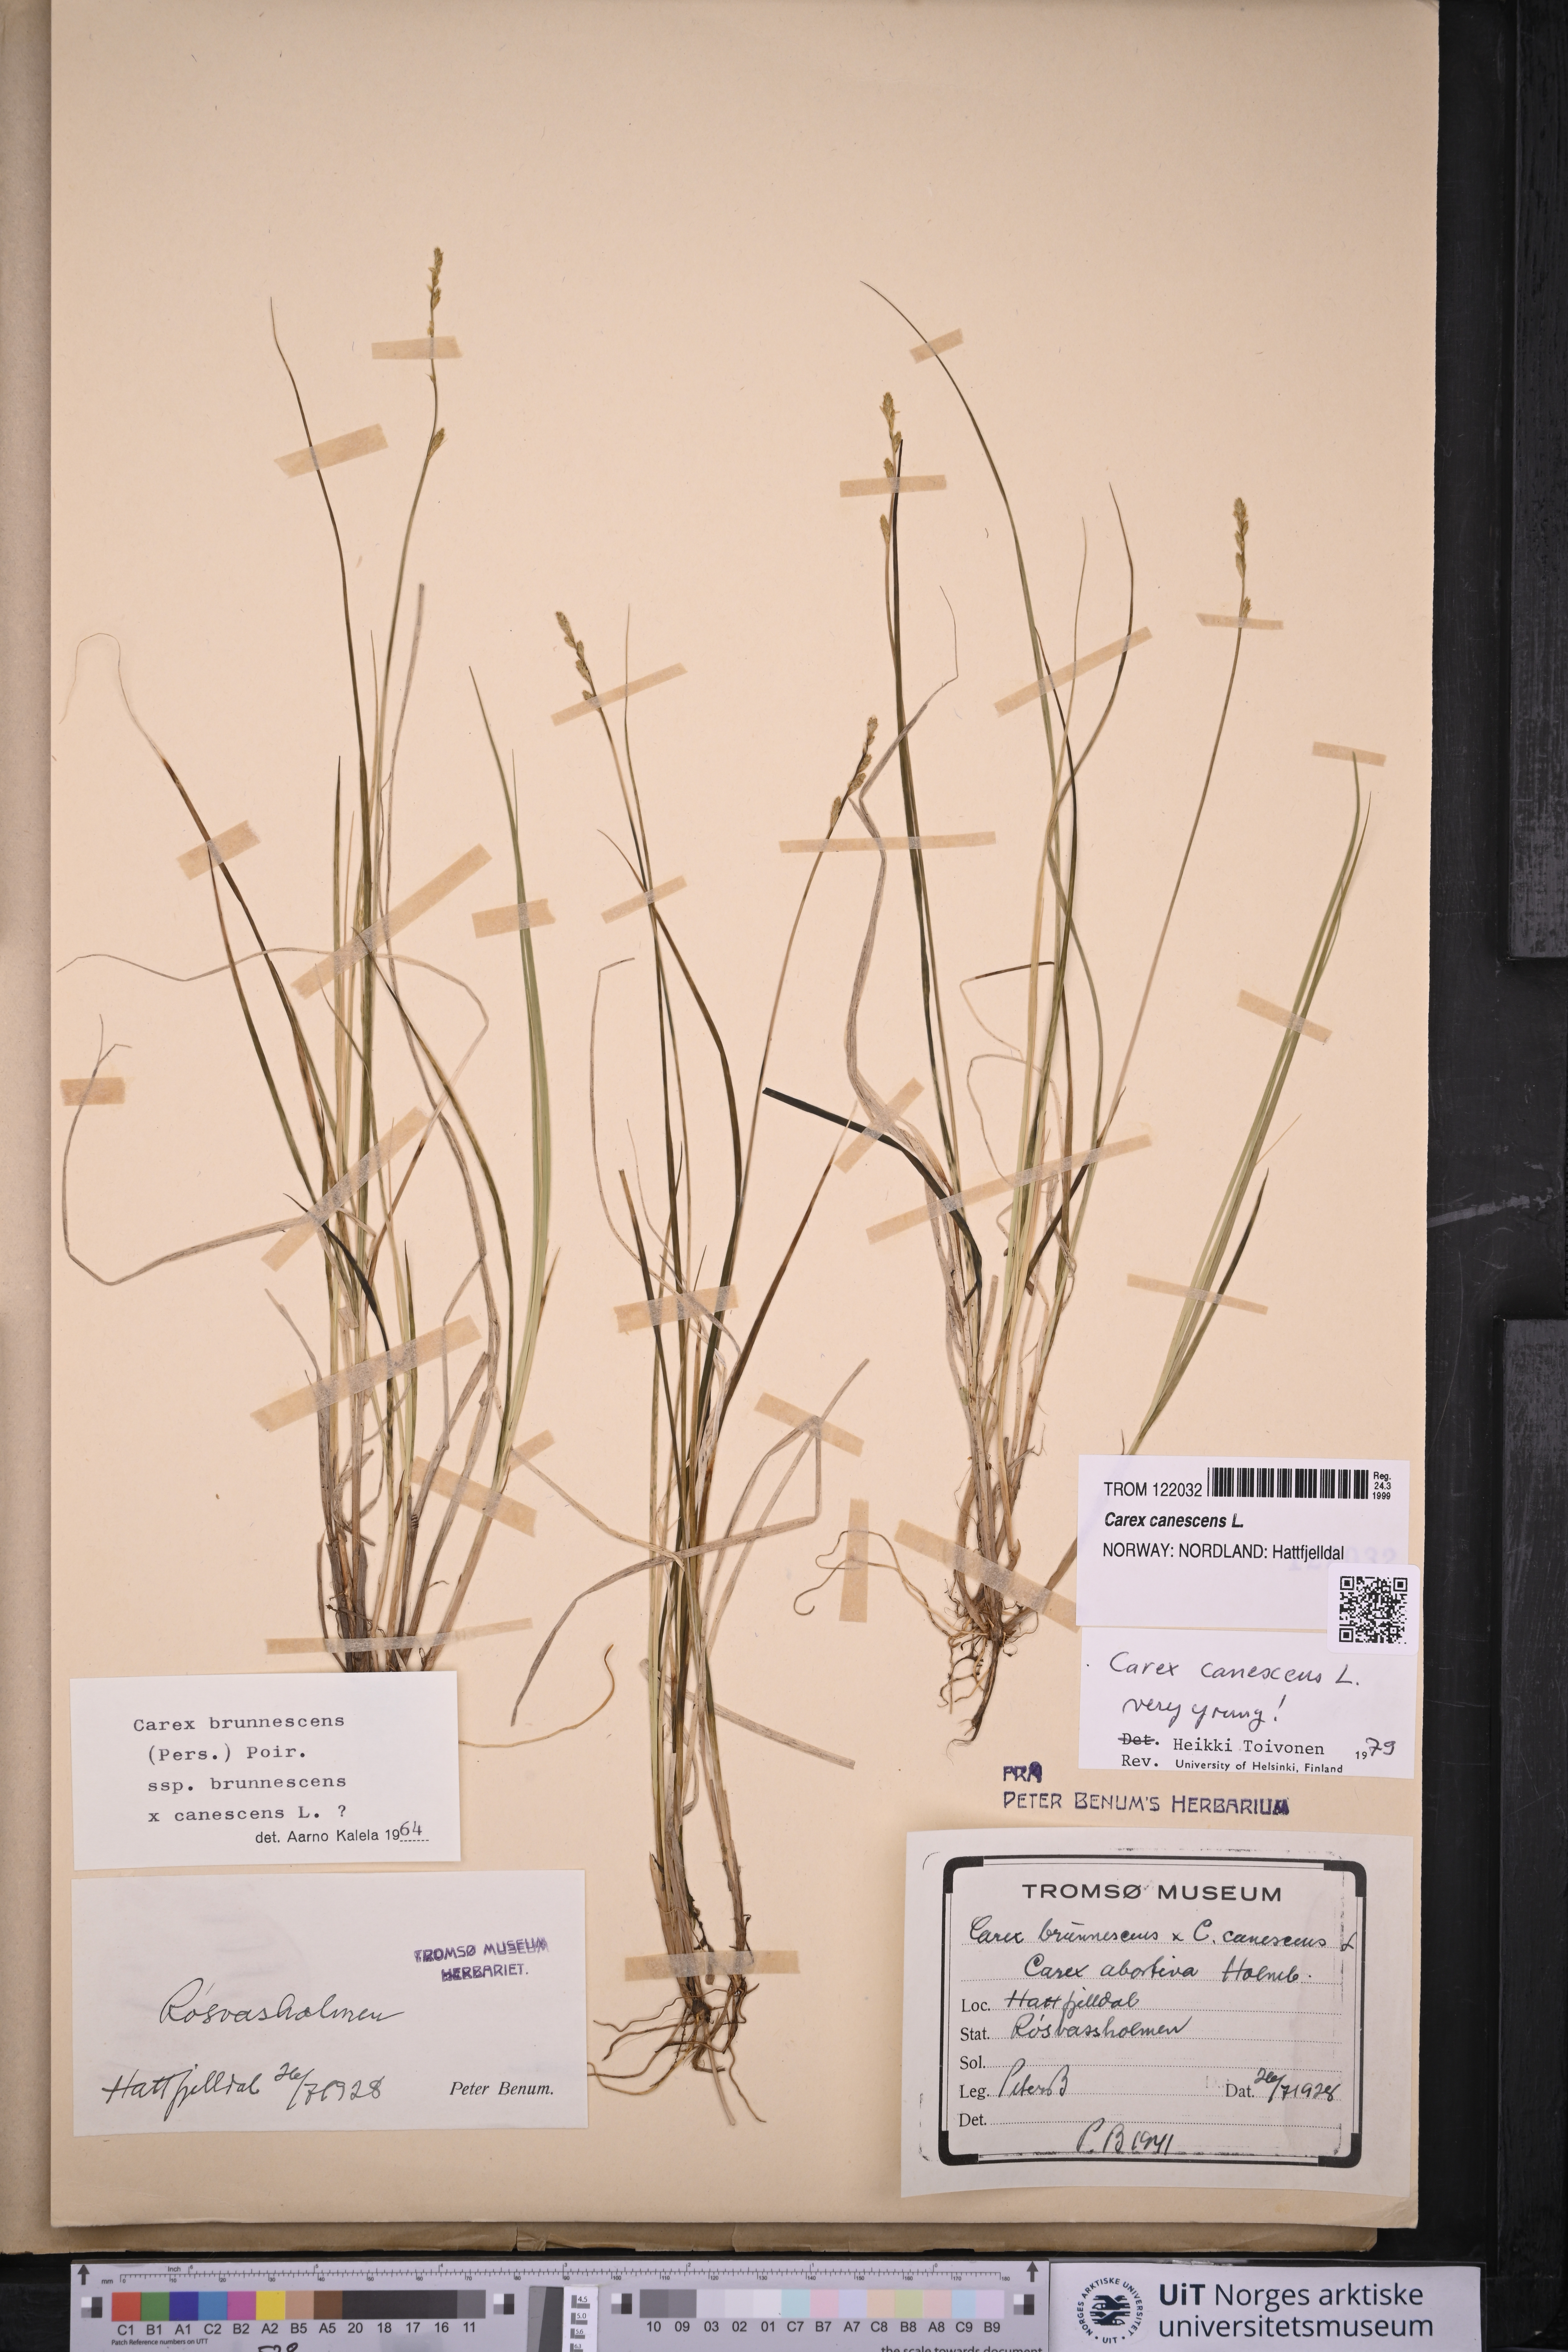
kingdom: Plantae
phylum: Tracheophyta
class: Liliopsida
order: Poales
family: Cyperaceae
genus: Carex
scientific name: Carex canescens
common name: White sedge
